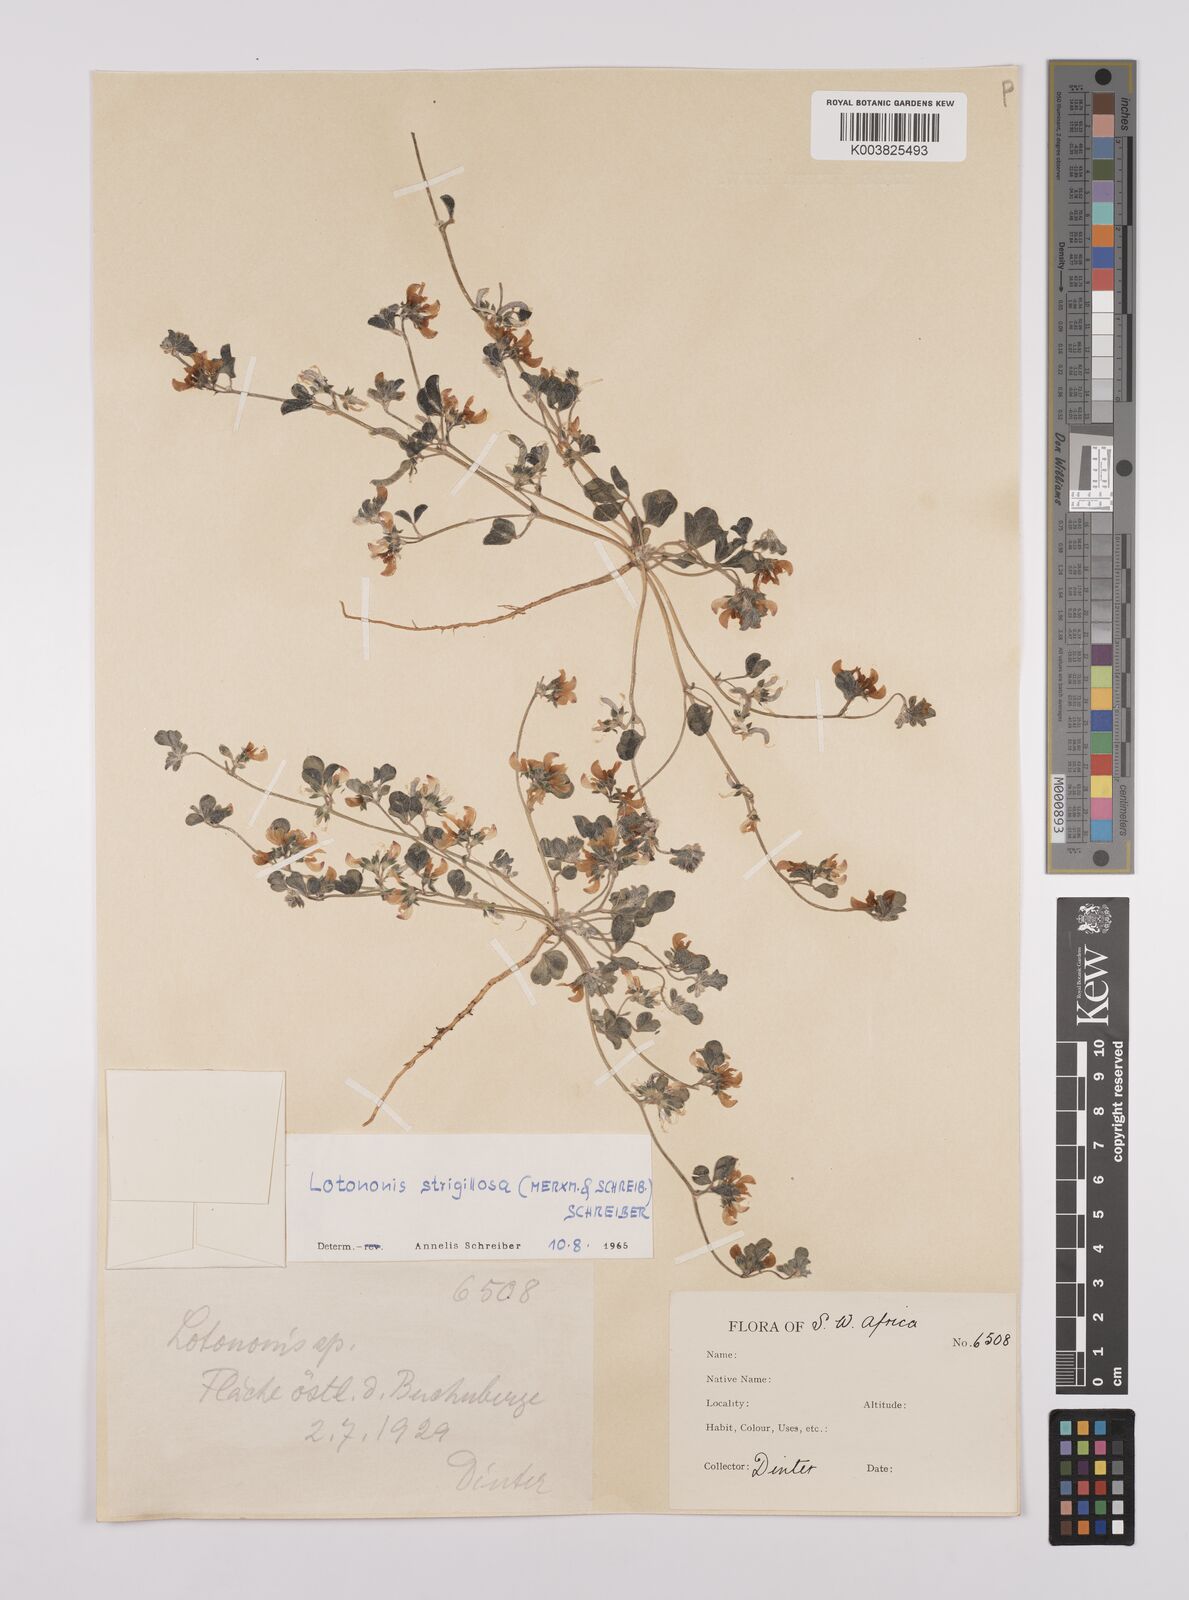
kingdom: Plantae
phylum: Tracheophyta
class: Magnoliopsida
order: Fabales
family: Fabaceae
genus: Lotononis
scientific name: Lotononis strigillosa
